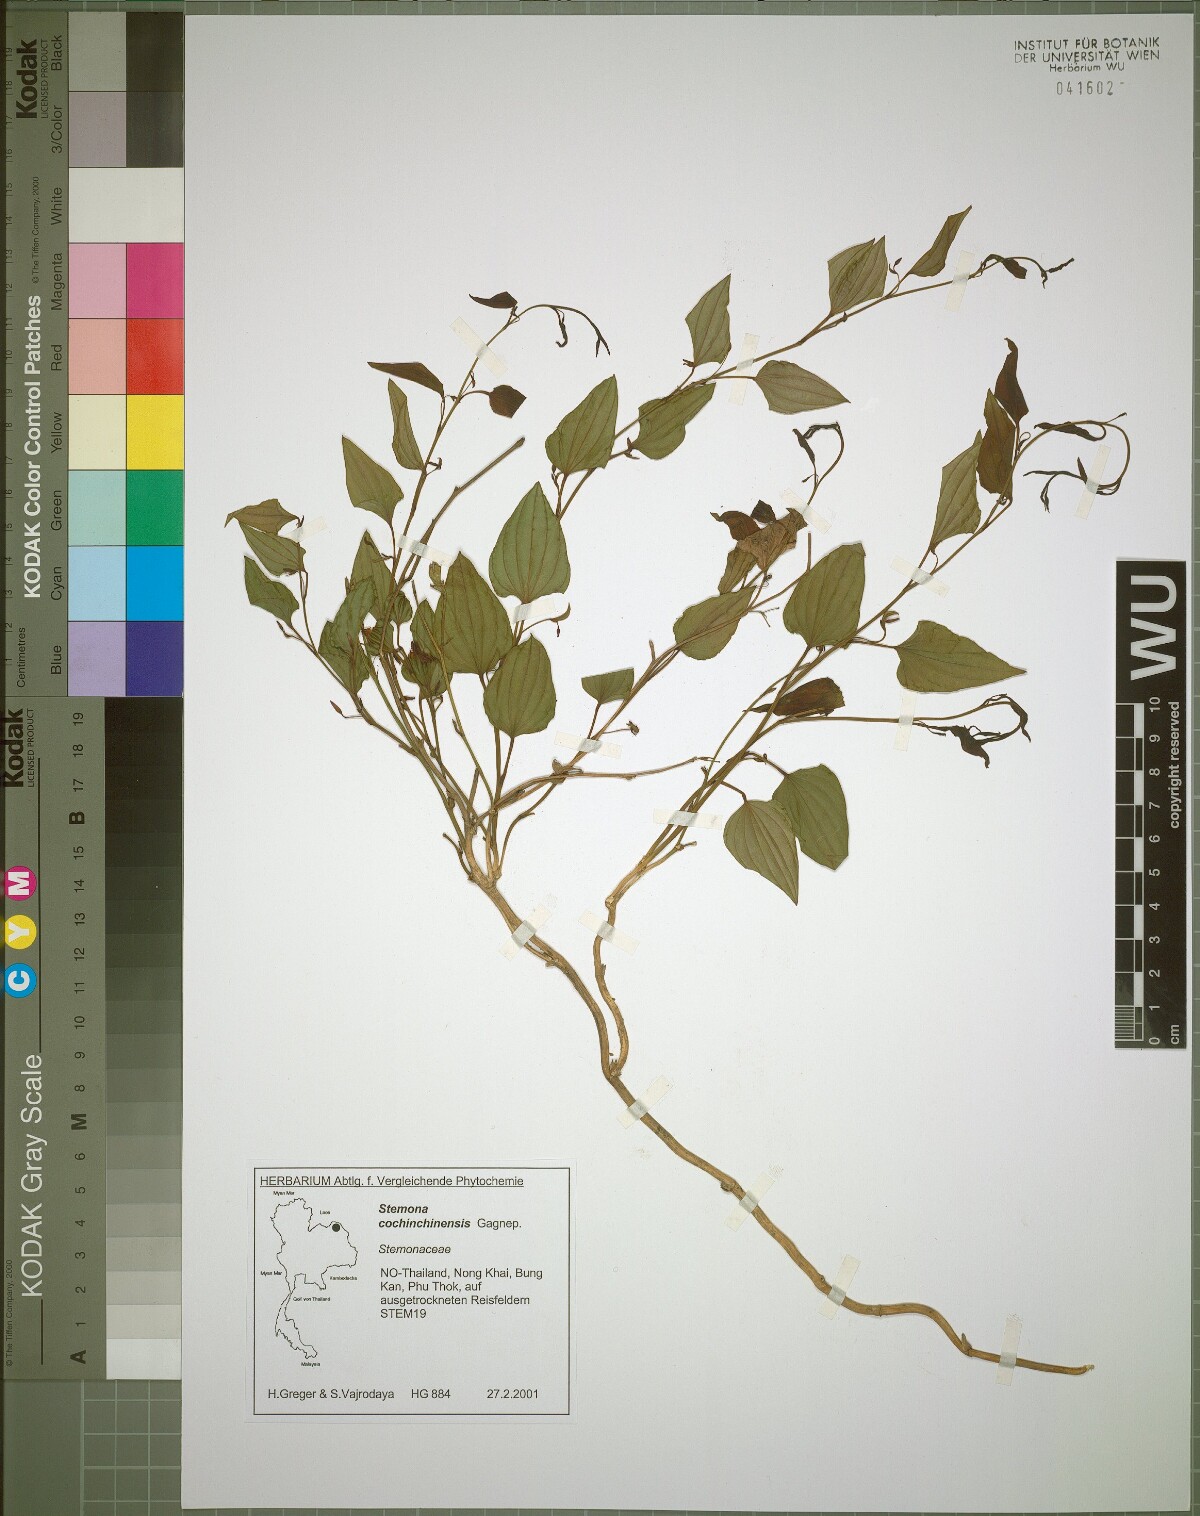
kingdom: Plantae
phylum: Tracheophyta
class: Liliopsida
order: Pandanales
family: Stemonaceae
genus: Stemona
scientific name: Stemona cochinchinensis
